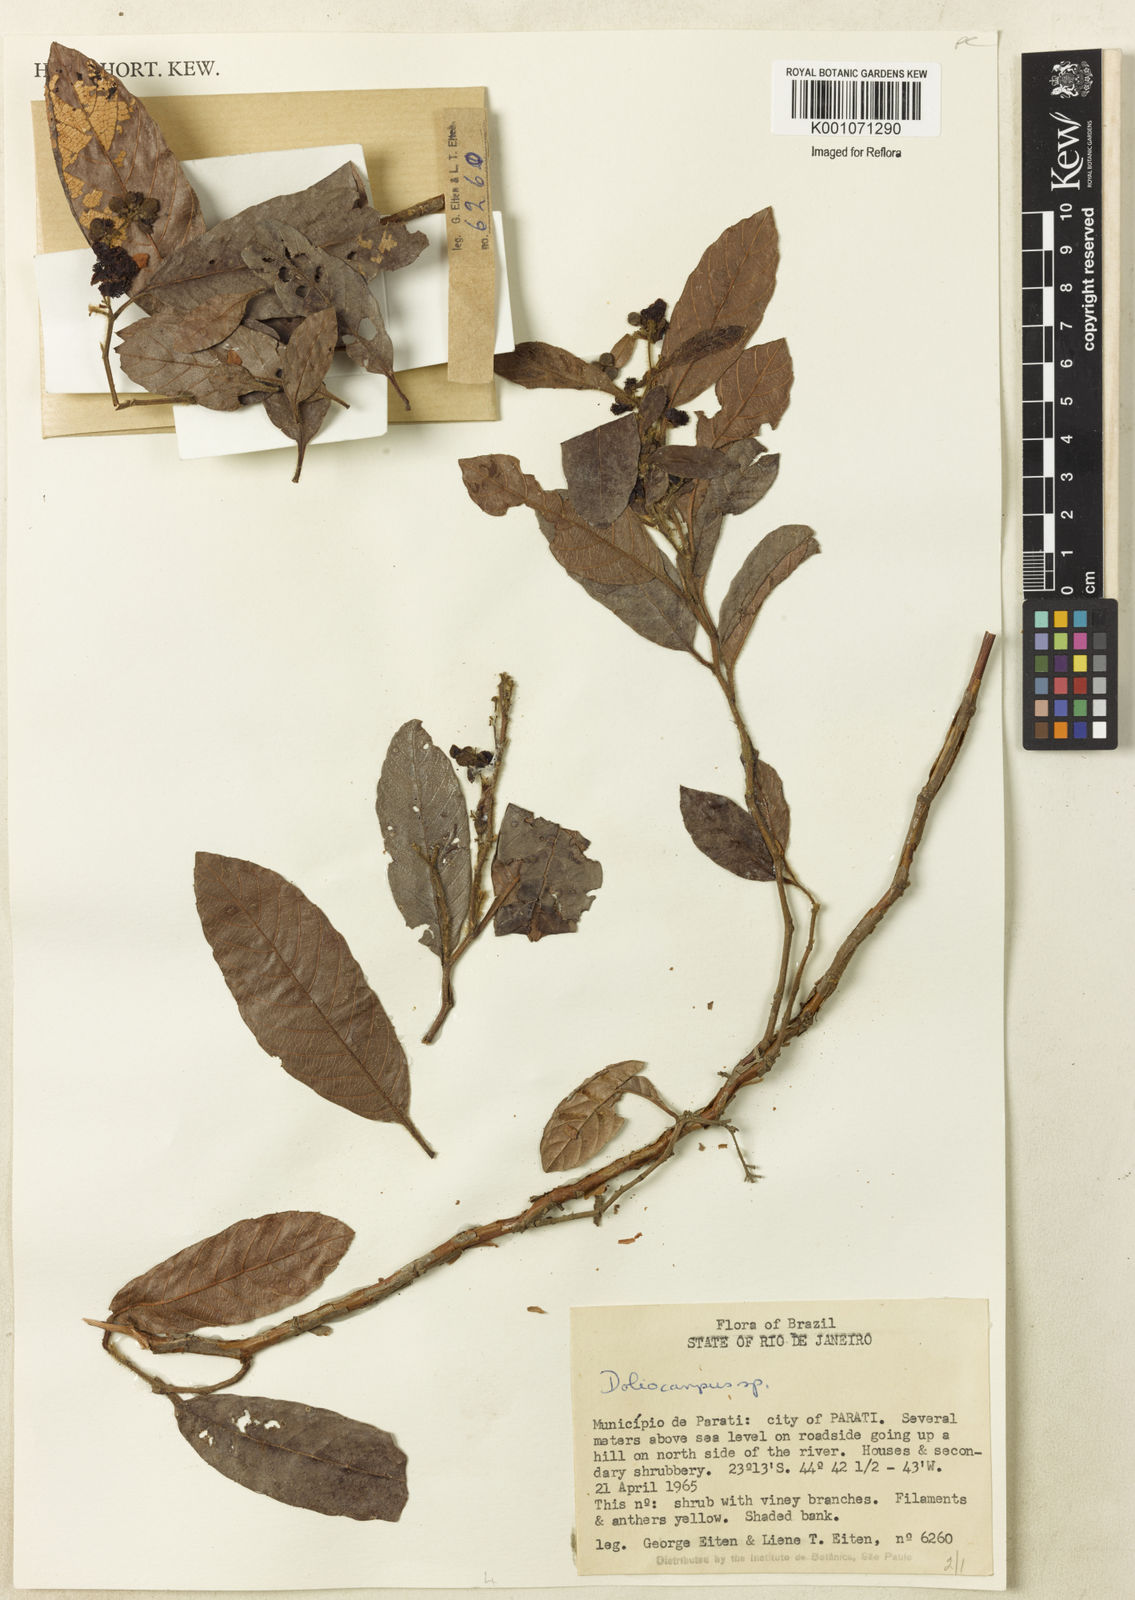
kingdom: Plantae
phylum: Tracheophyta
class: Magnoliopsida
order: Dilleniales
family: Dilleniaceae
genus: Doliocarpus
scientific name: Doliocarpus
